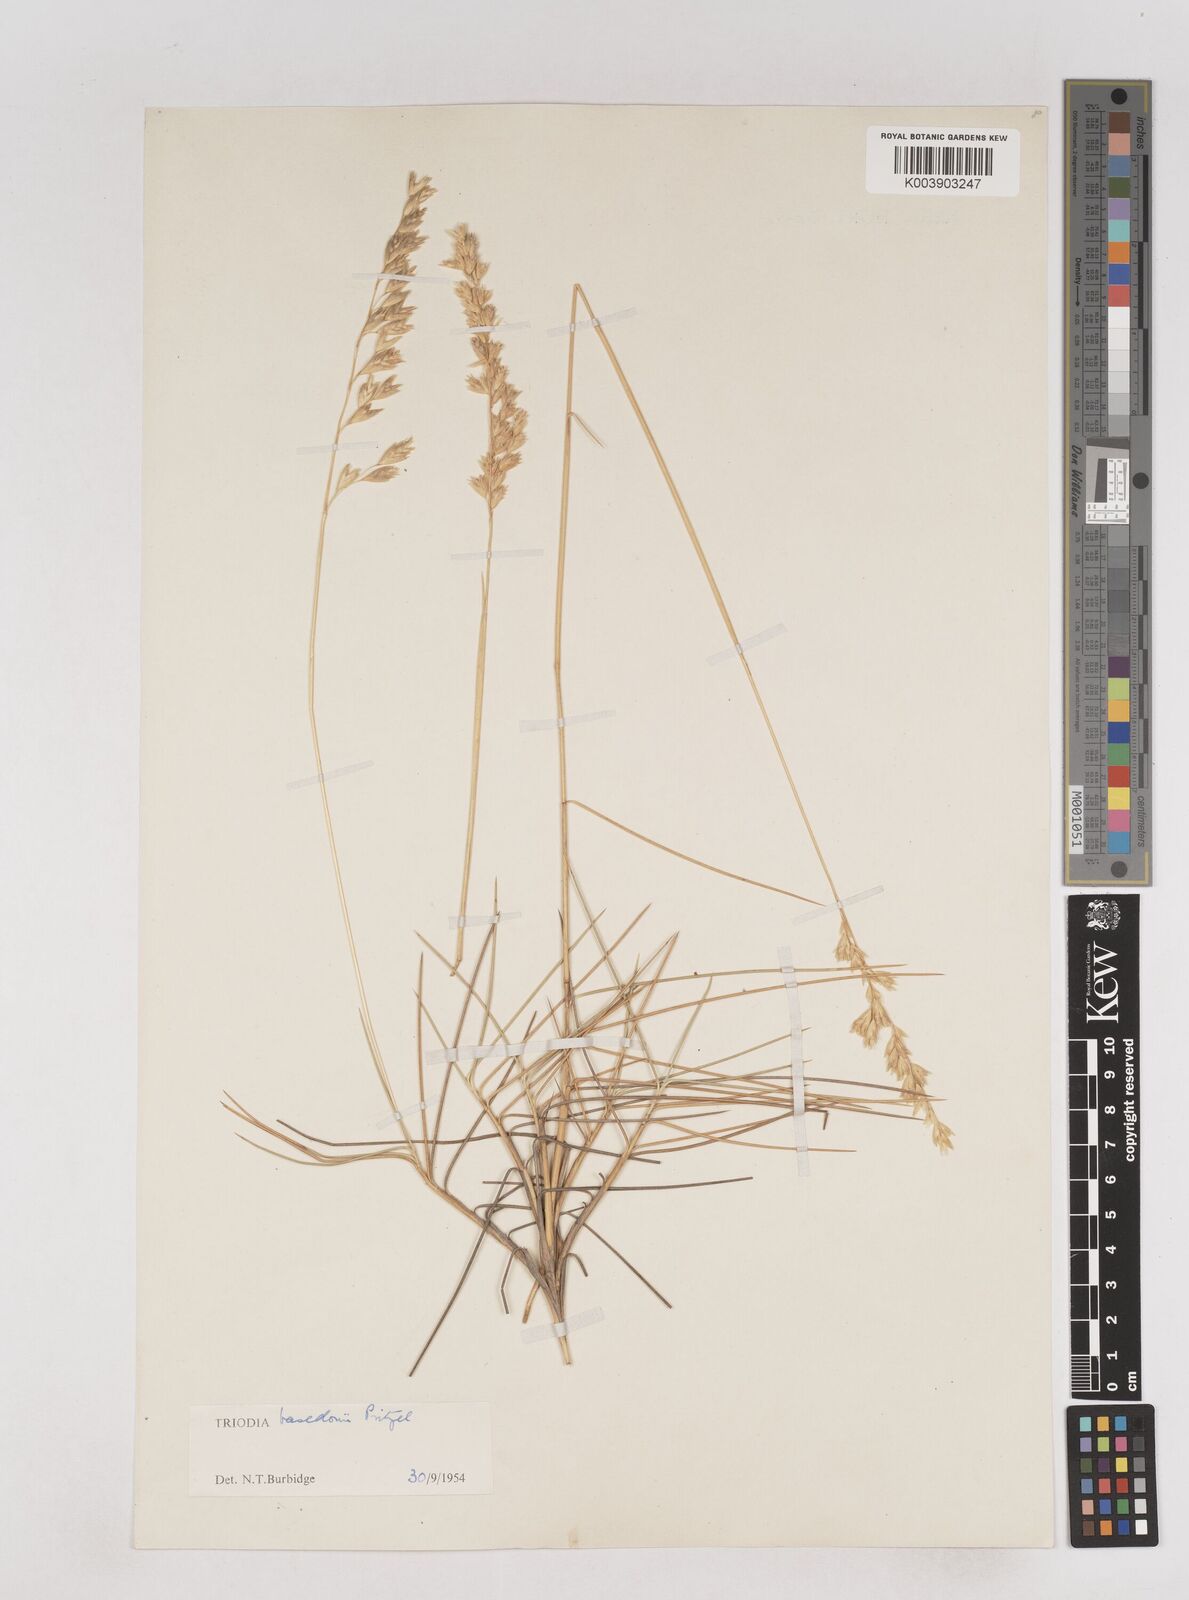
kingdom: Plantae
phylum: Tracheophyta
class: Liliopsida
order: Poales
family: Poaceae
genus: Triodia
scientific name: Triodia basedowii
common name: Hard spinifex
